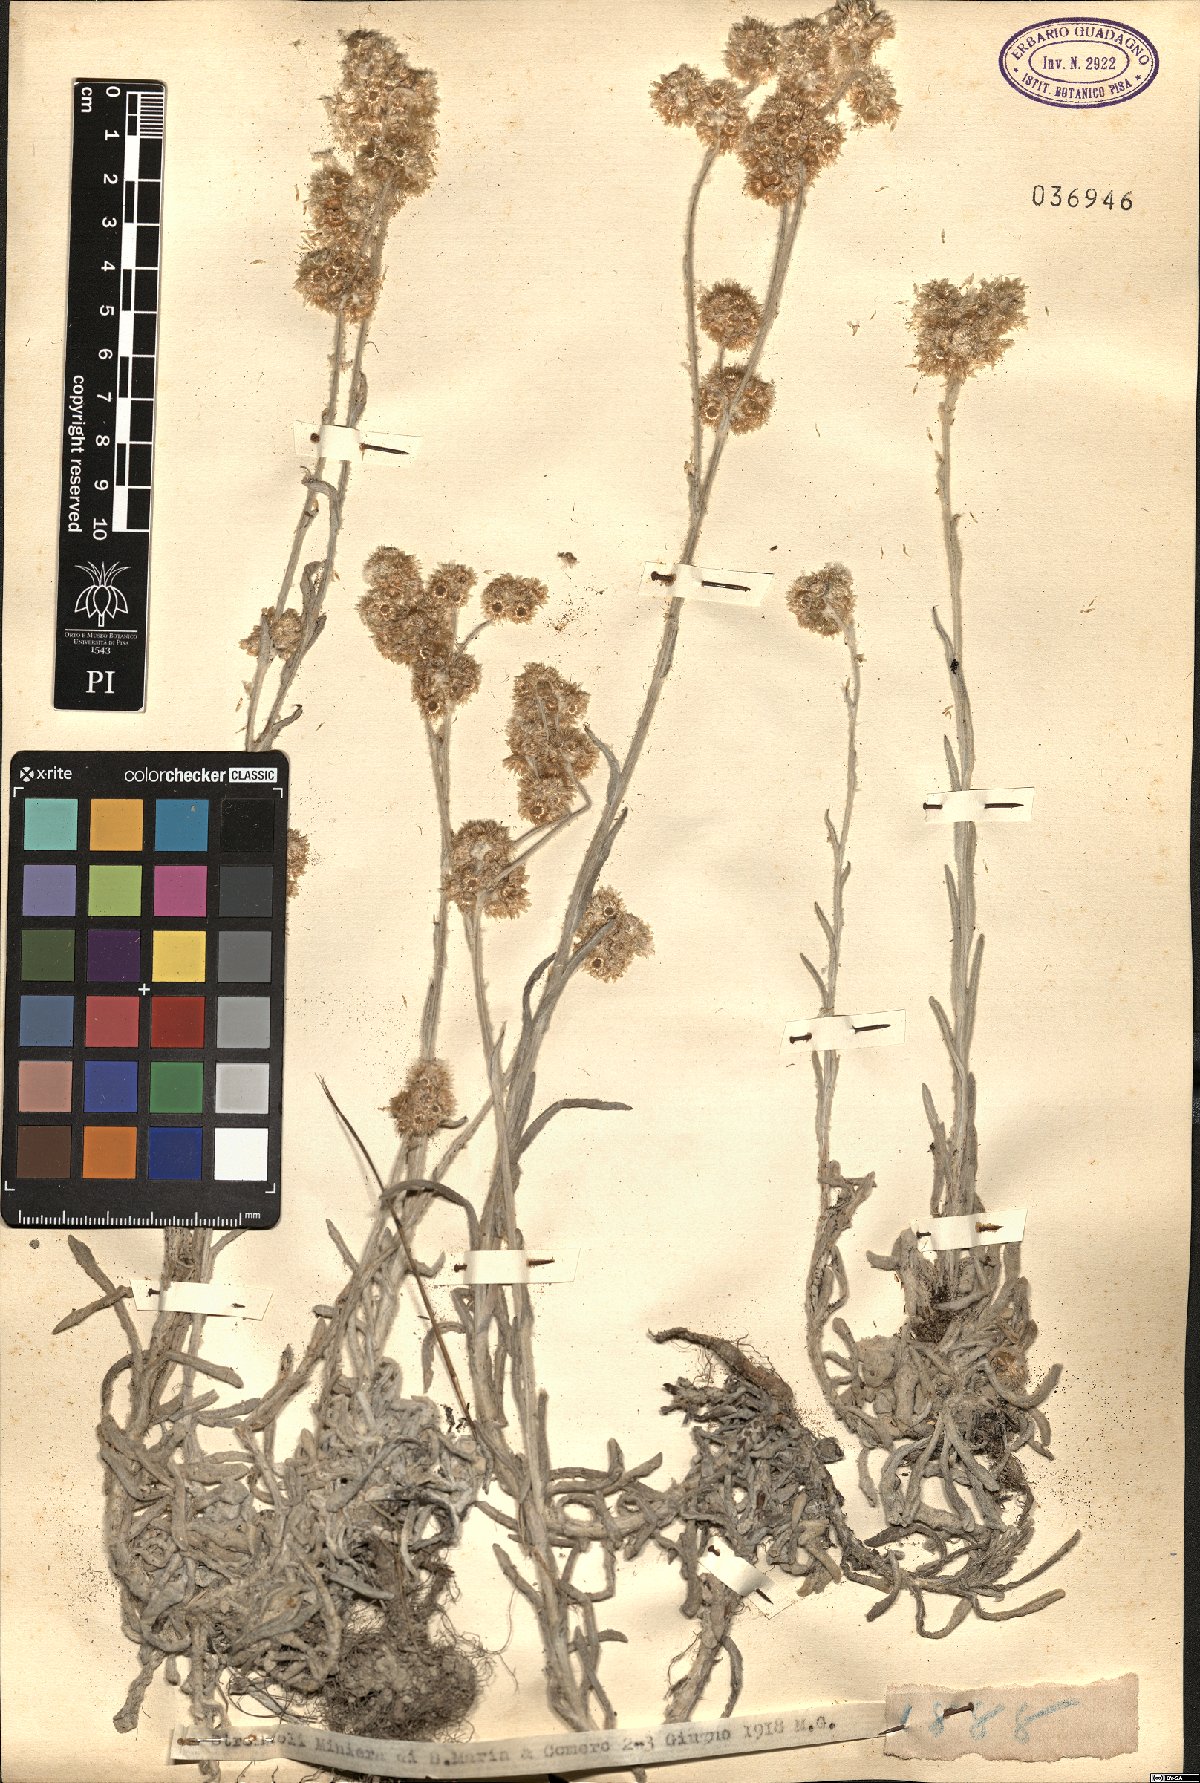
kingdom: Plantae
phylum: Tracheophyta
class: Magnoliopsida
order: Asterales
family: Asteraceae
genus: Gnaphalium
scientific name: Gnaphalium
